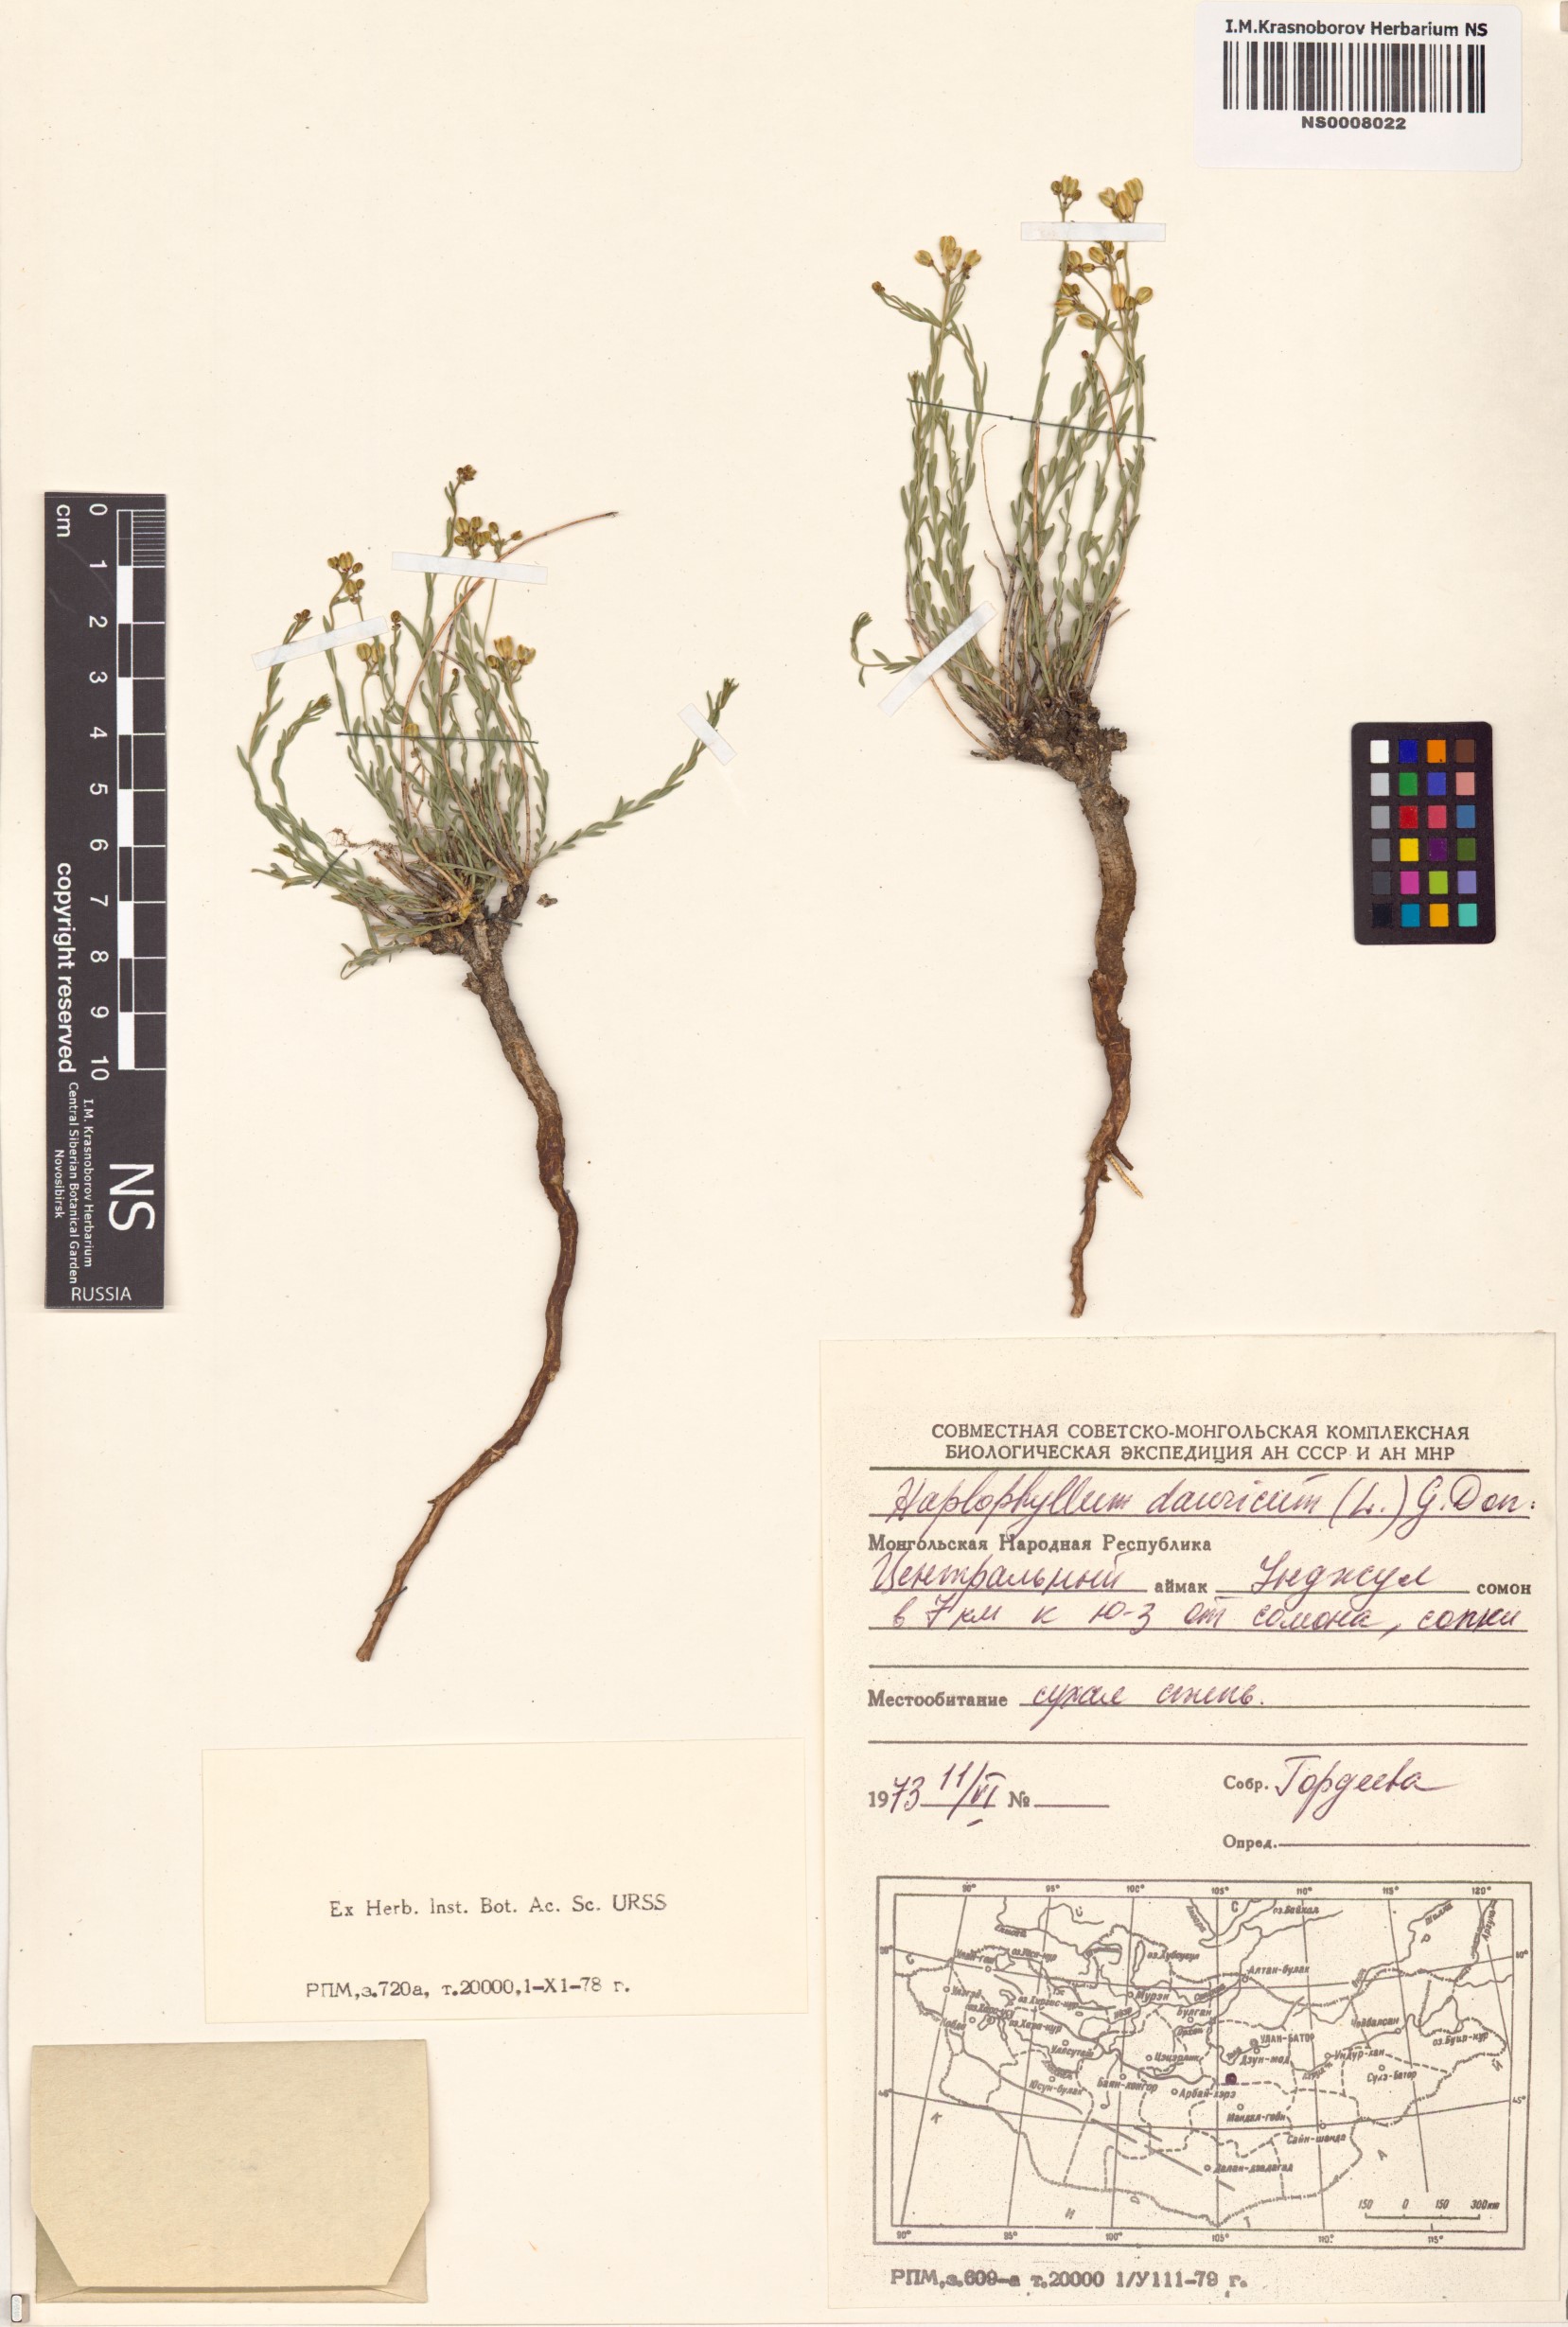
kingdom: Plantae
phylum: Tracheophyta
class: Magnoliopsida
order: Sapindales
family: Rutaceae
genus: Haplophyllum
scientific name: Haplophyllum dauricum
